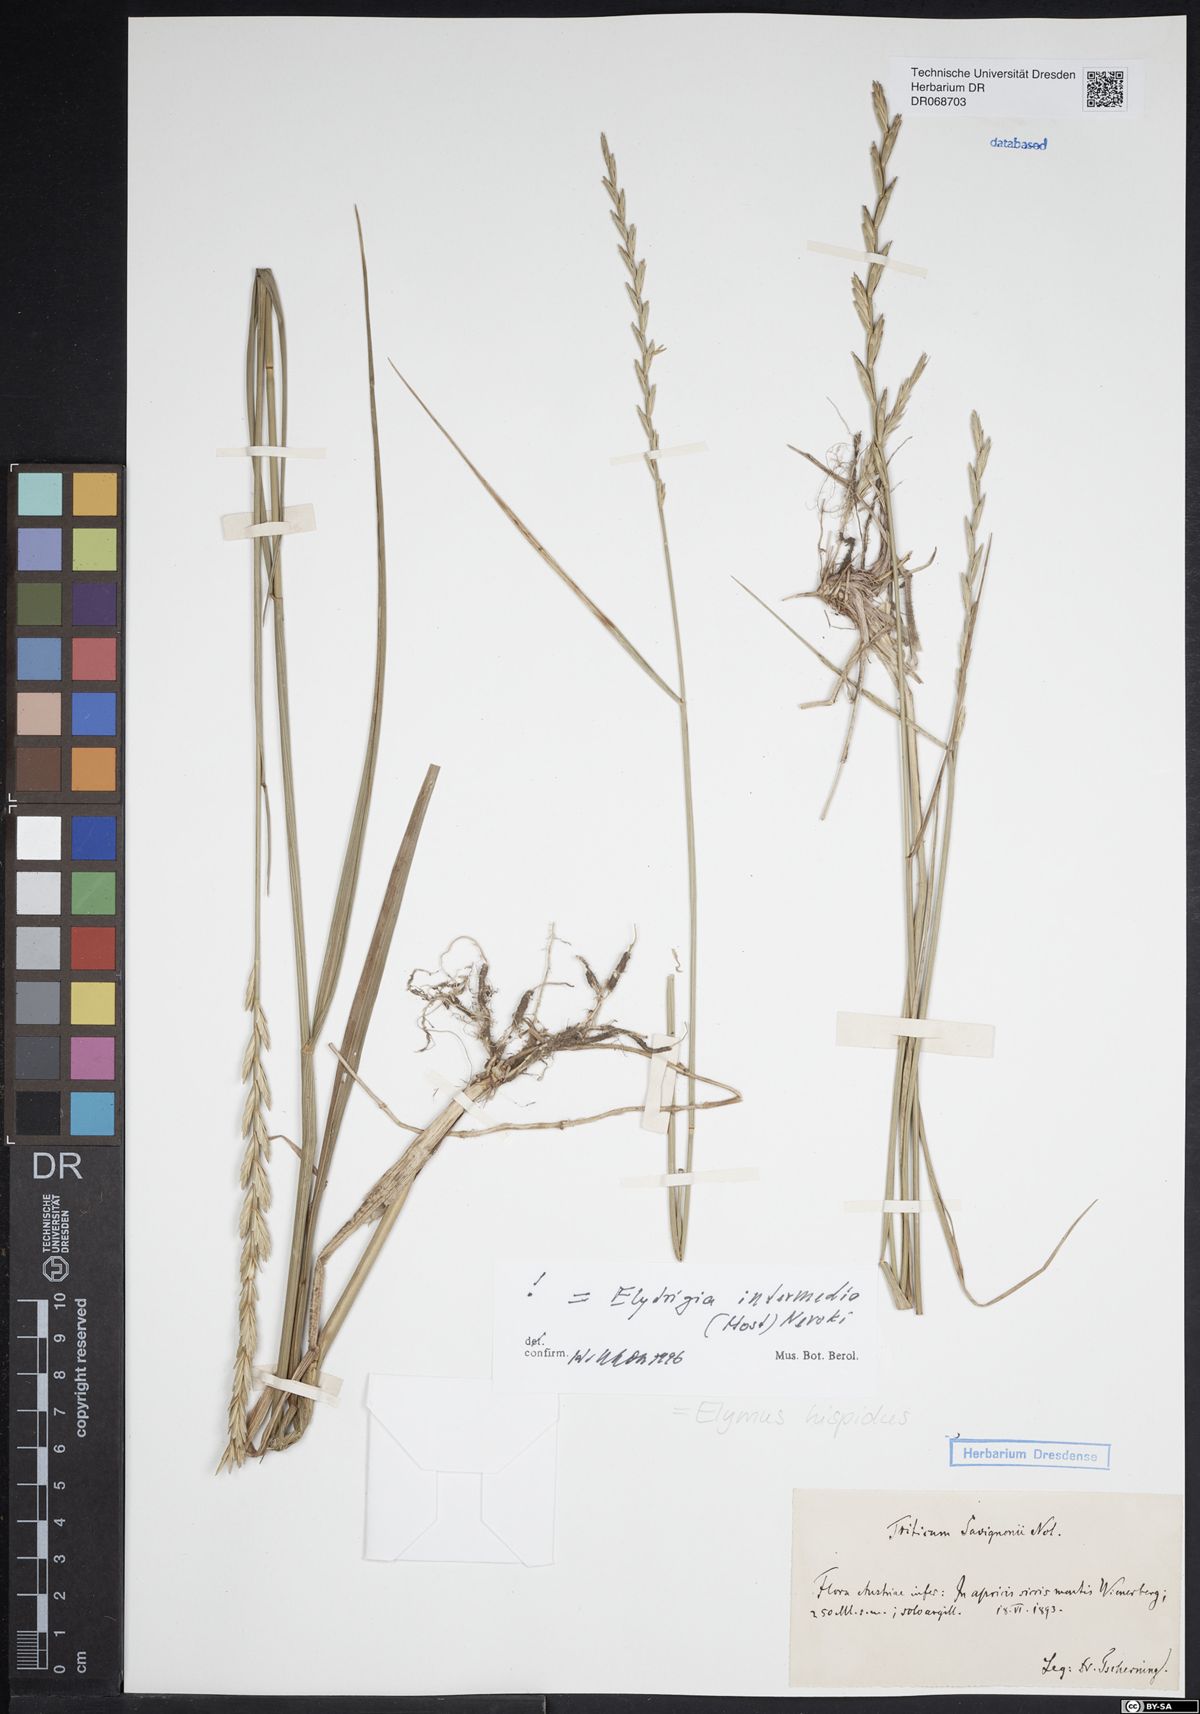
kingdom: Plantae
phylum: Tracheophyta
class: Liliopsida
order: Poales
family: Poaceae
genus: Thinopyrum
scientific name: Thinopyrum intermedium
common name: Intermediate wheatgrass
